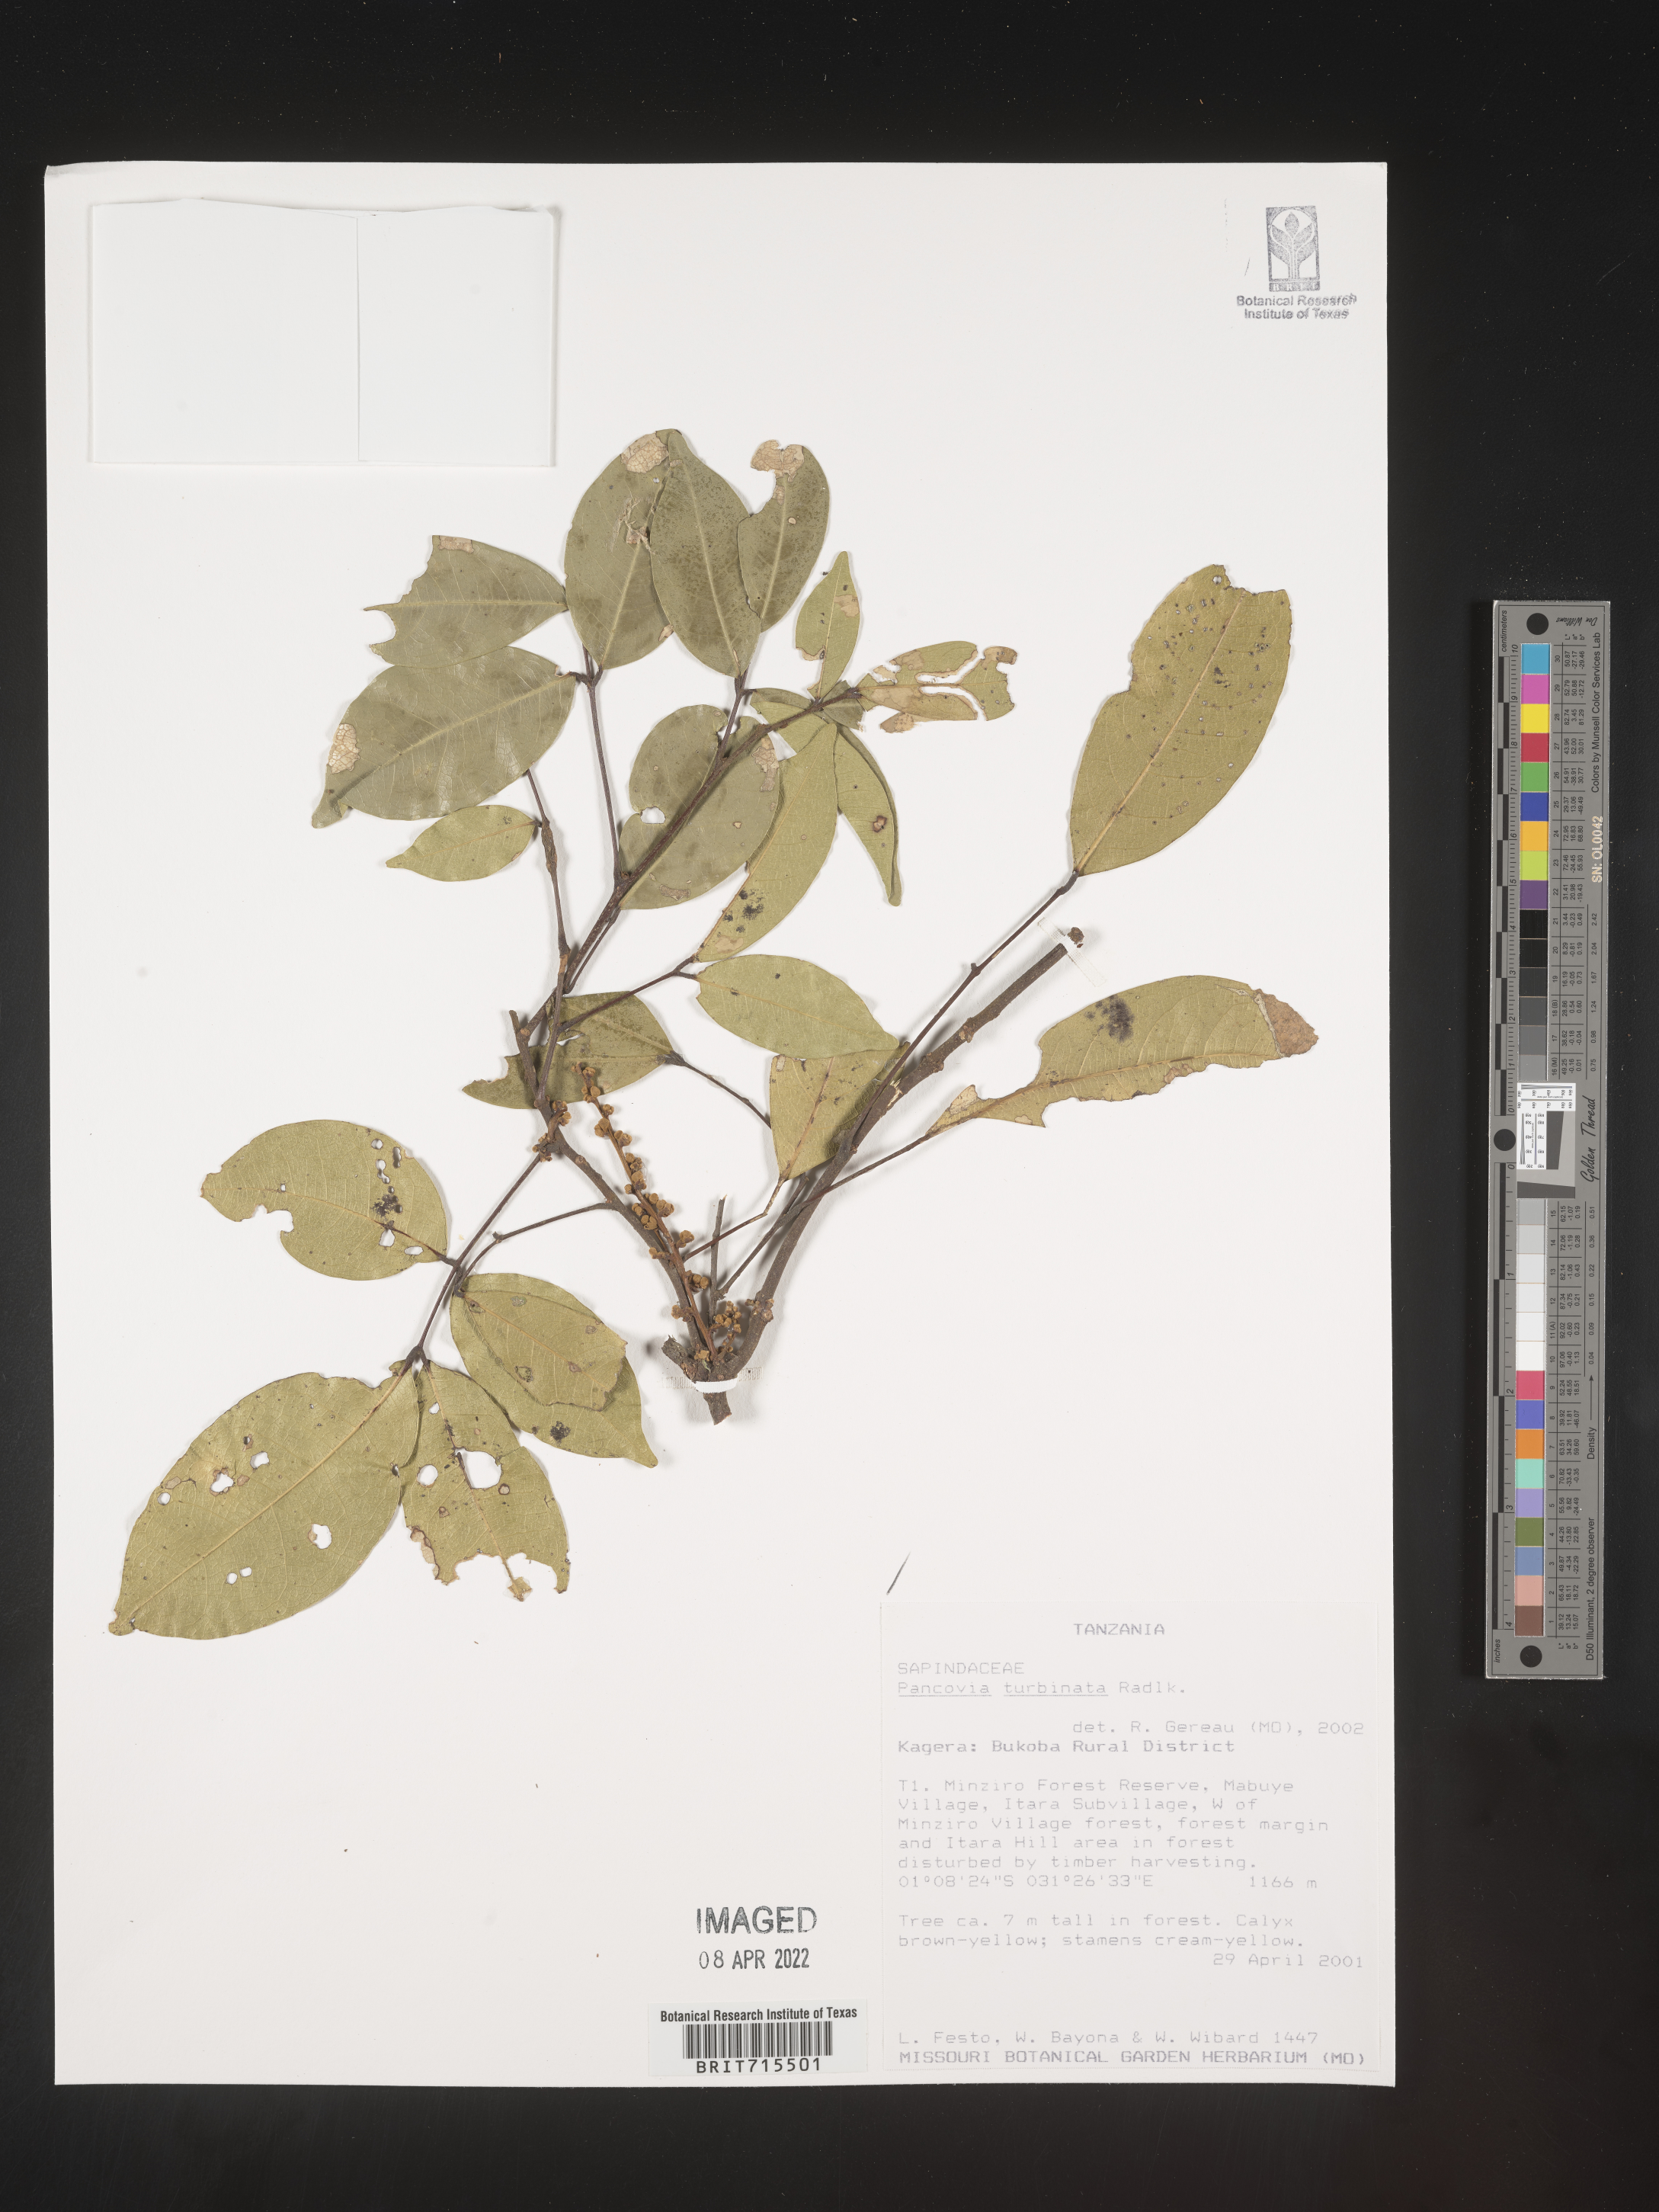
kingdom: Plantae
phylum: Tracheophyta
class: Magnoliopsida
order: Sapindales
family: Sapindaceae
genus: Pancovia
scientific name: Pancovia
